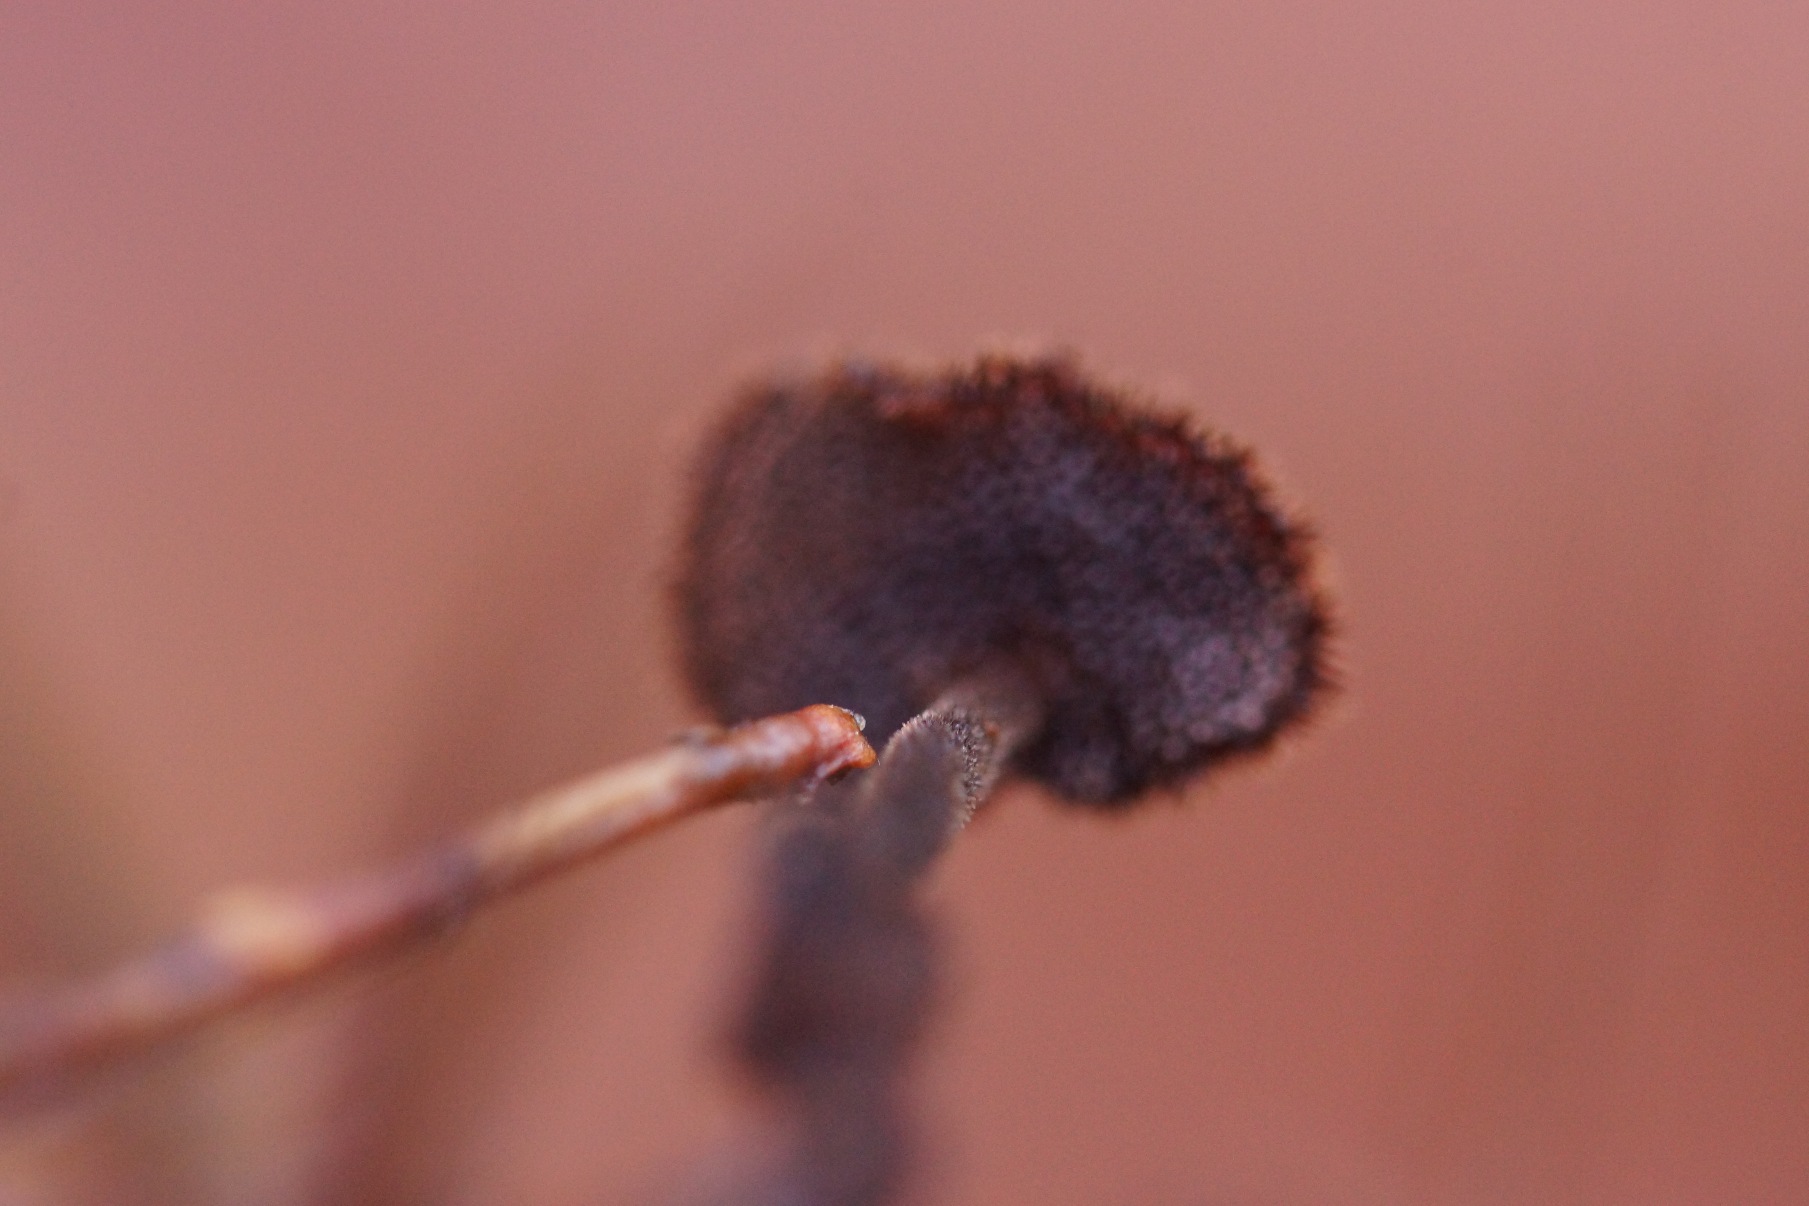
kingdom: Fungi
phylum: Basidiomycota
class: Agaricomycetes
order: Russulales
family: Auriscalpiaceae
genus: Auriscalpium
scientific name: Auriscalpium vulgare
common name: Koglepigsvamp
